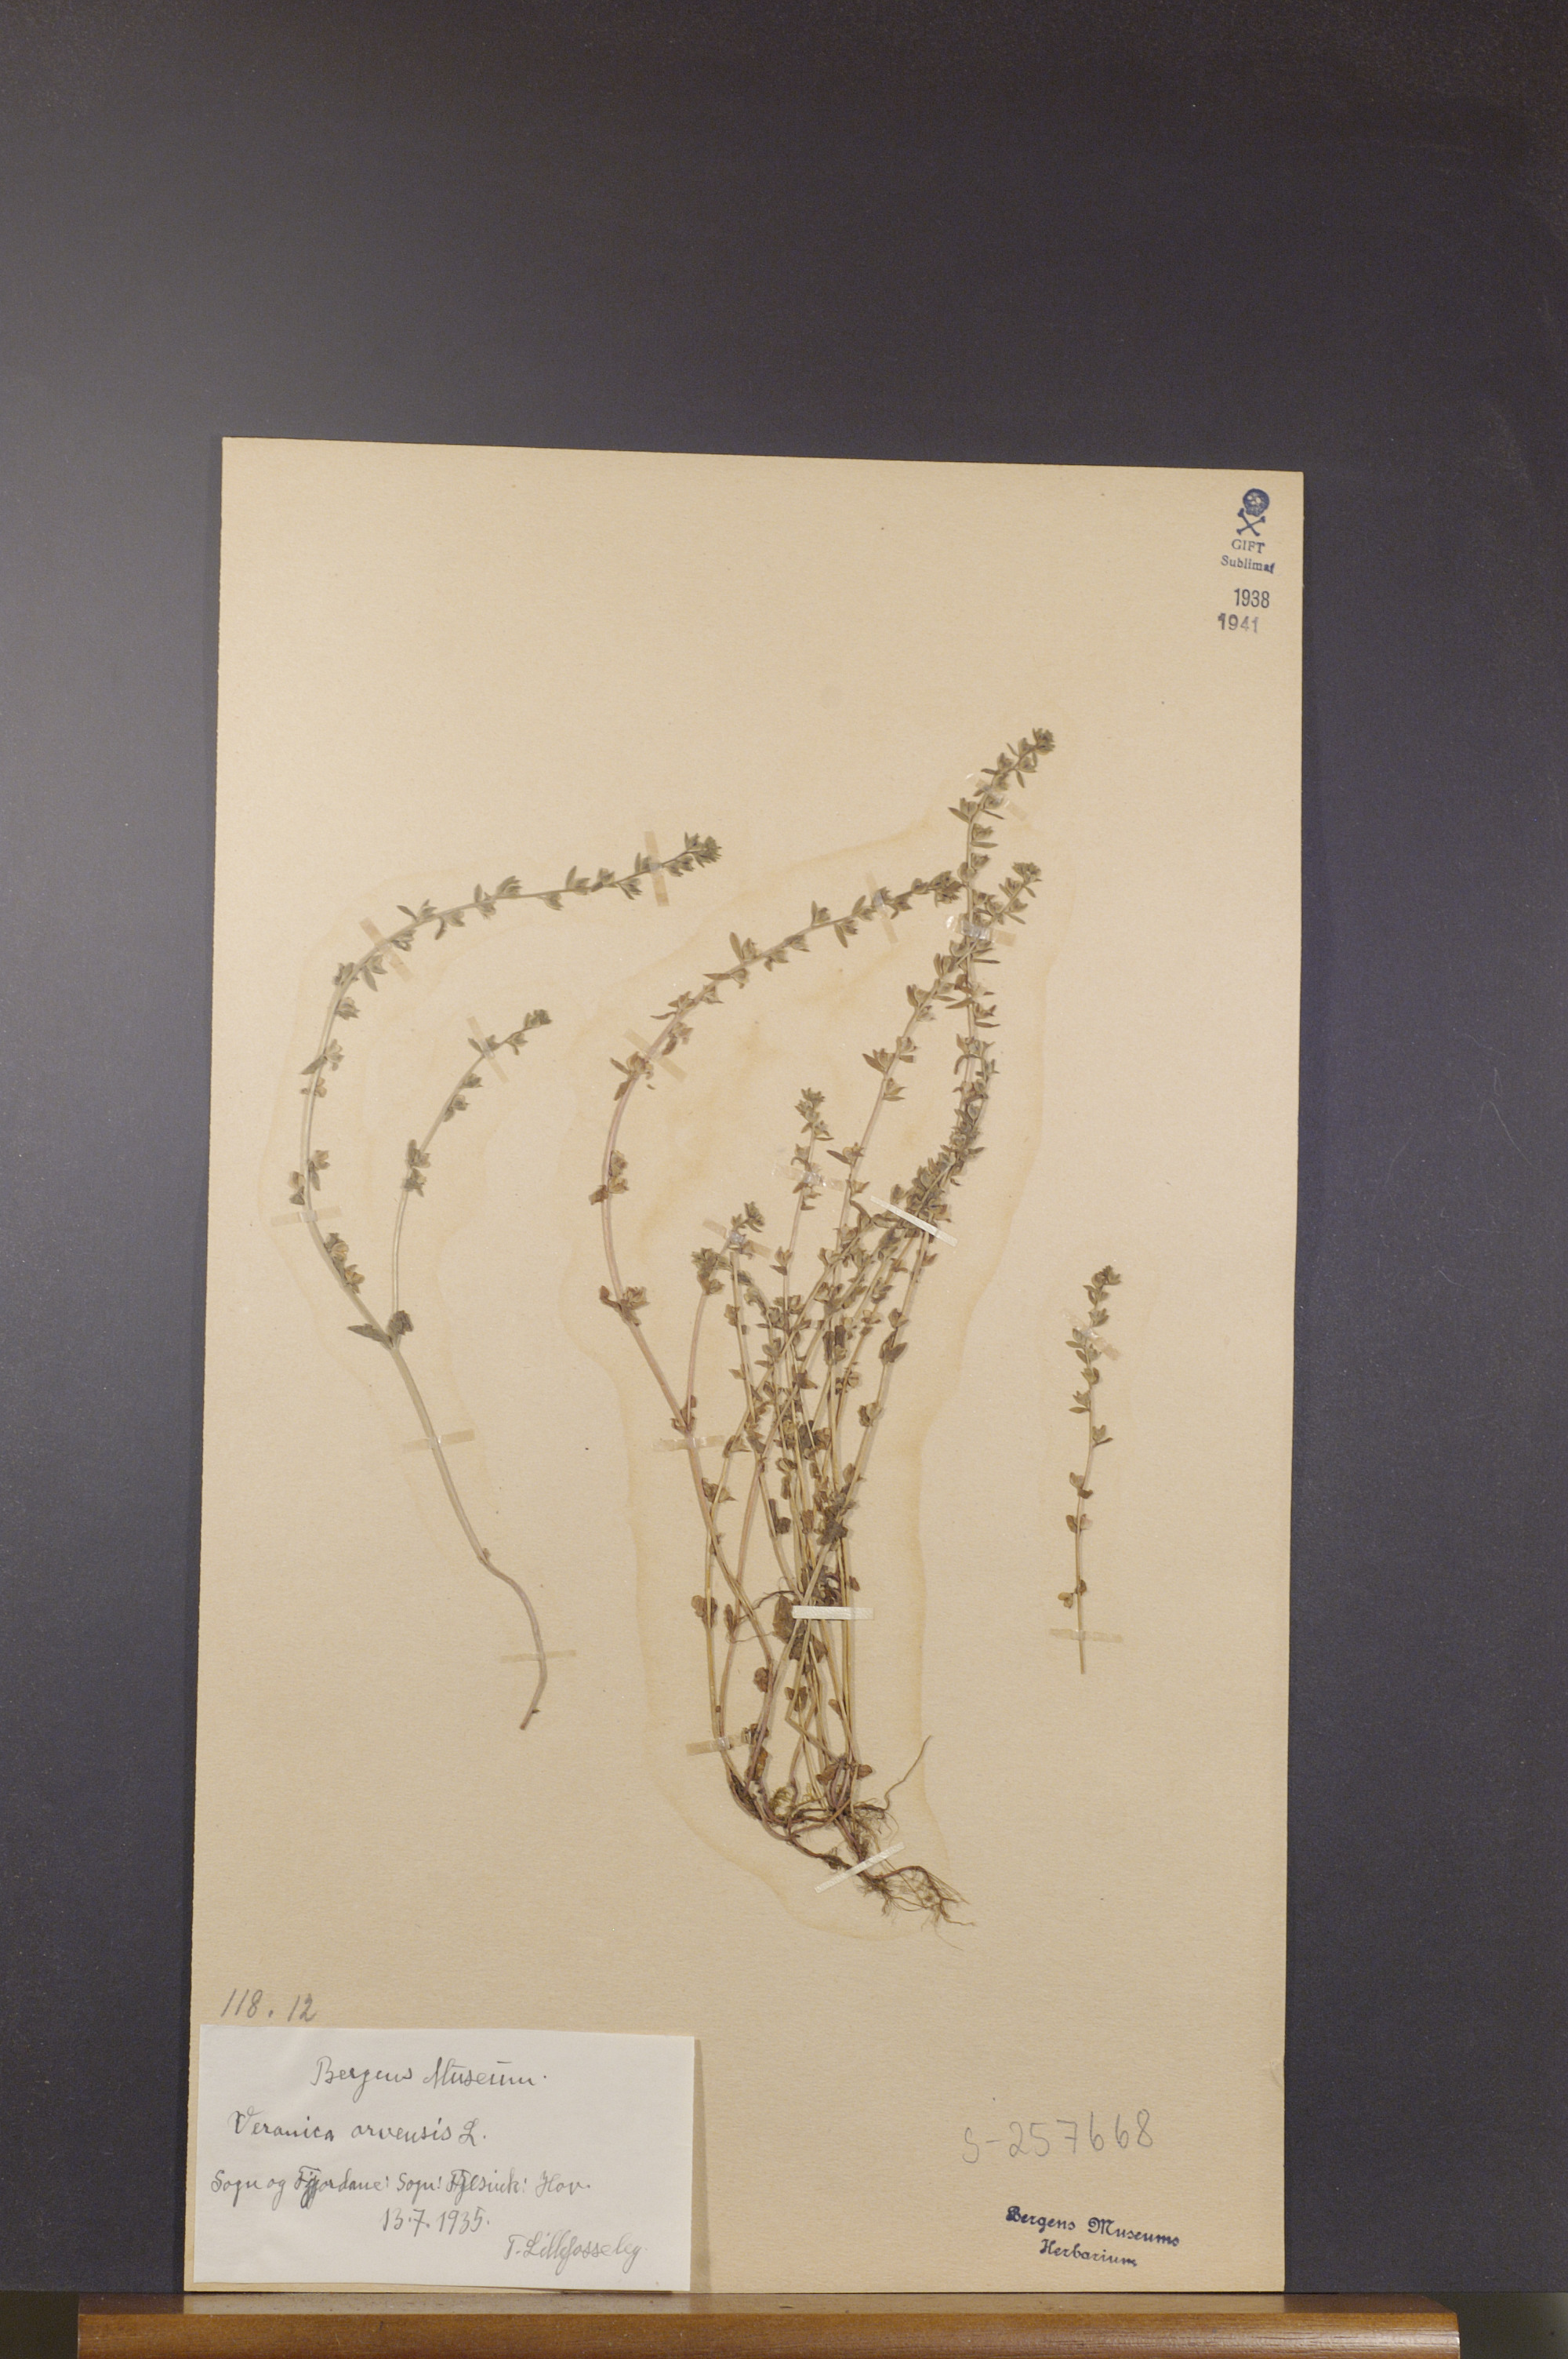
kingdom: Plantae
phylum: Tracheophyta
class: Magnoliopsida
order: Lamiales
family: Plantaginaceae
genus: Veronica
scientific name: Veronica arvensis
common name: Corn speedwell
